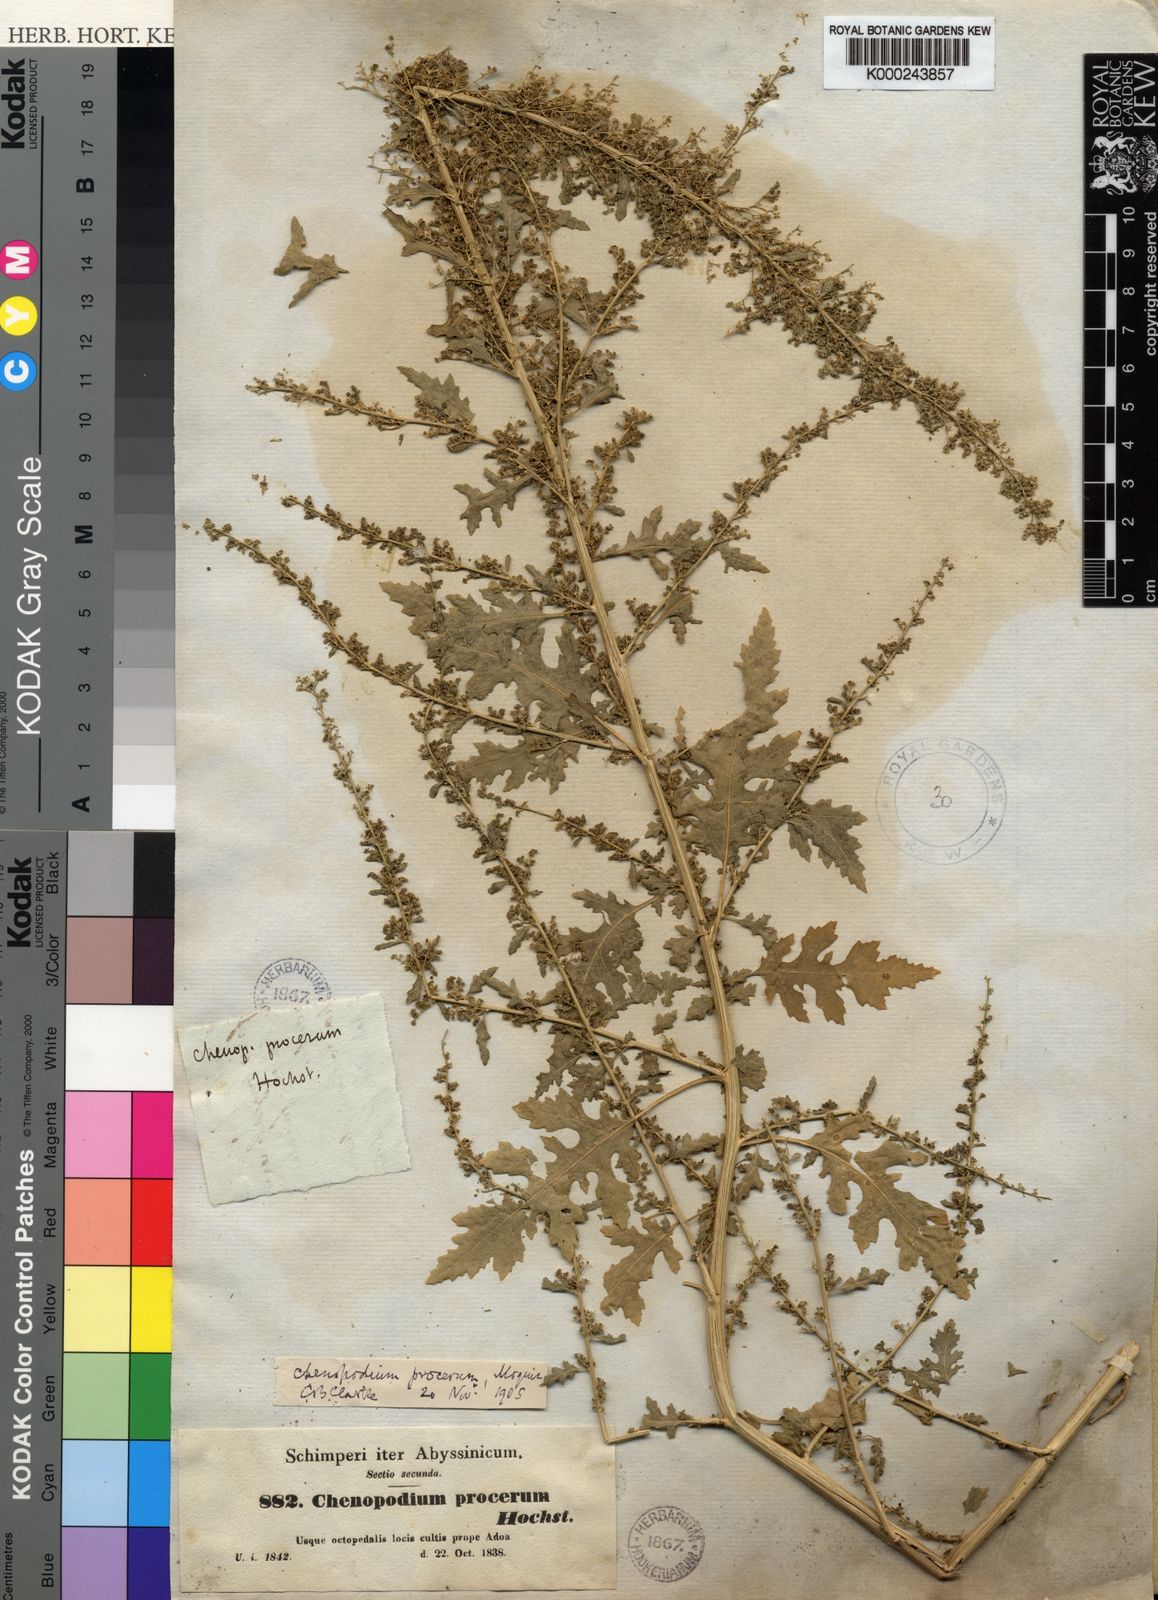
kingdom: Plantae
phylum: Tracheophyta
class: Magnoliopsida
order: Caryophyllales
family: Amaranthaceae
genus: Dysphania
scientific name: Dysphania procera
